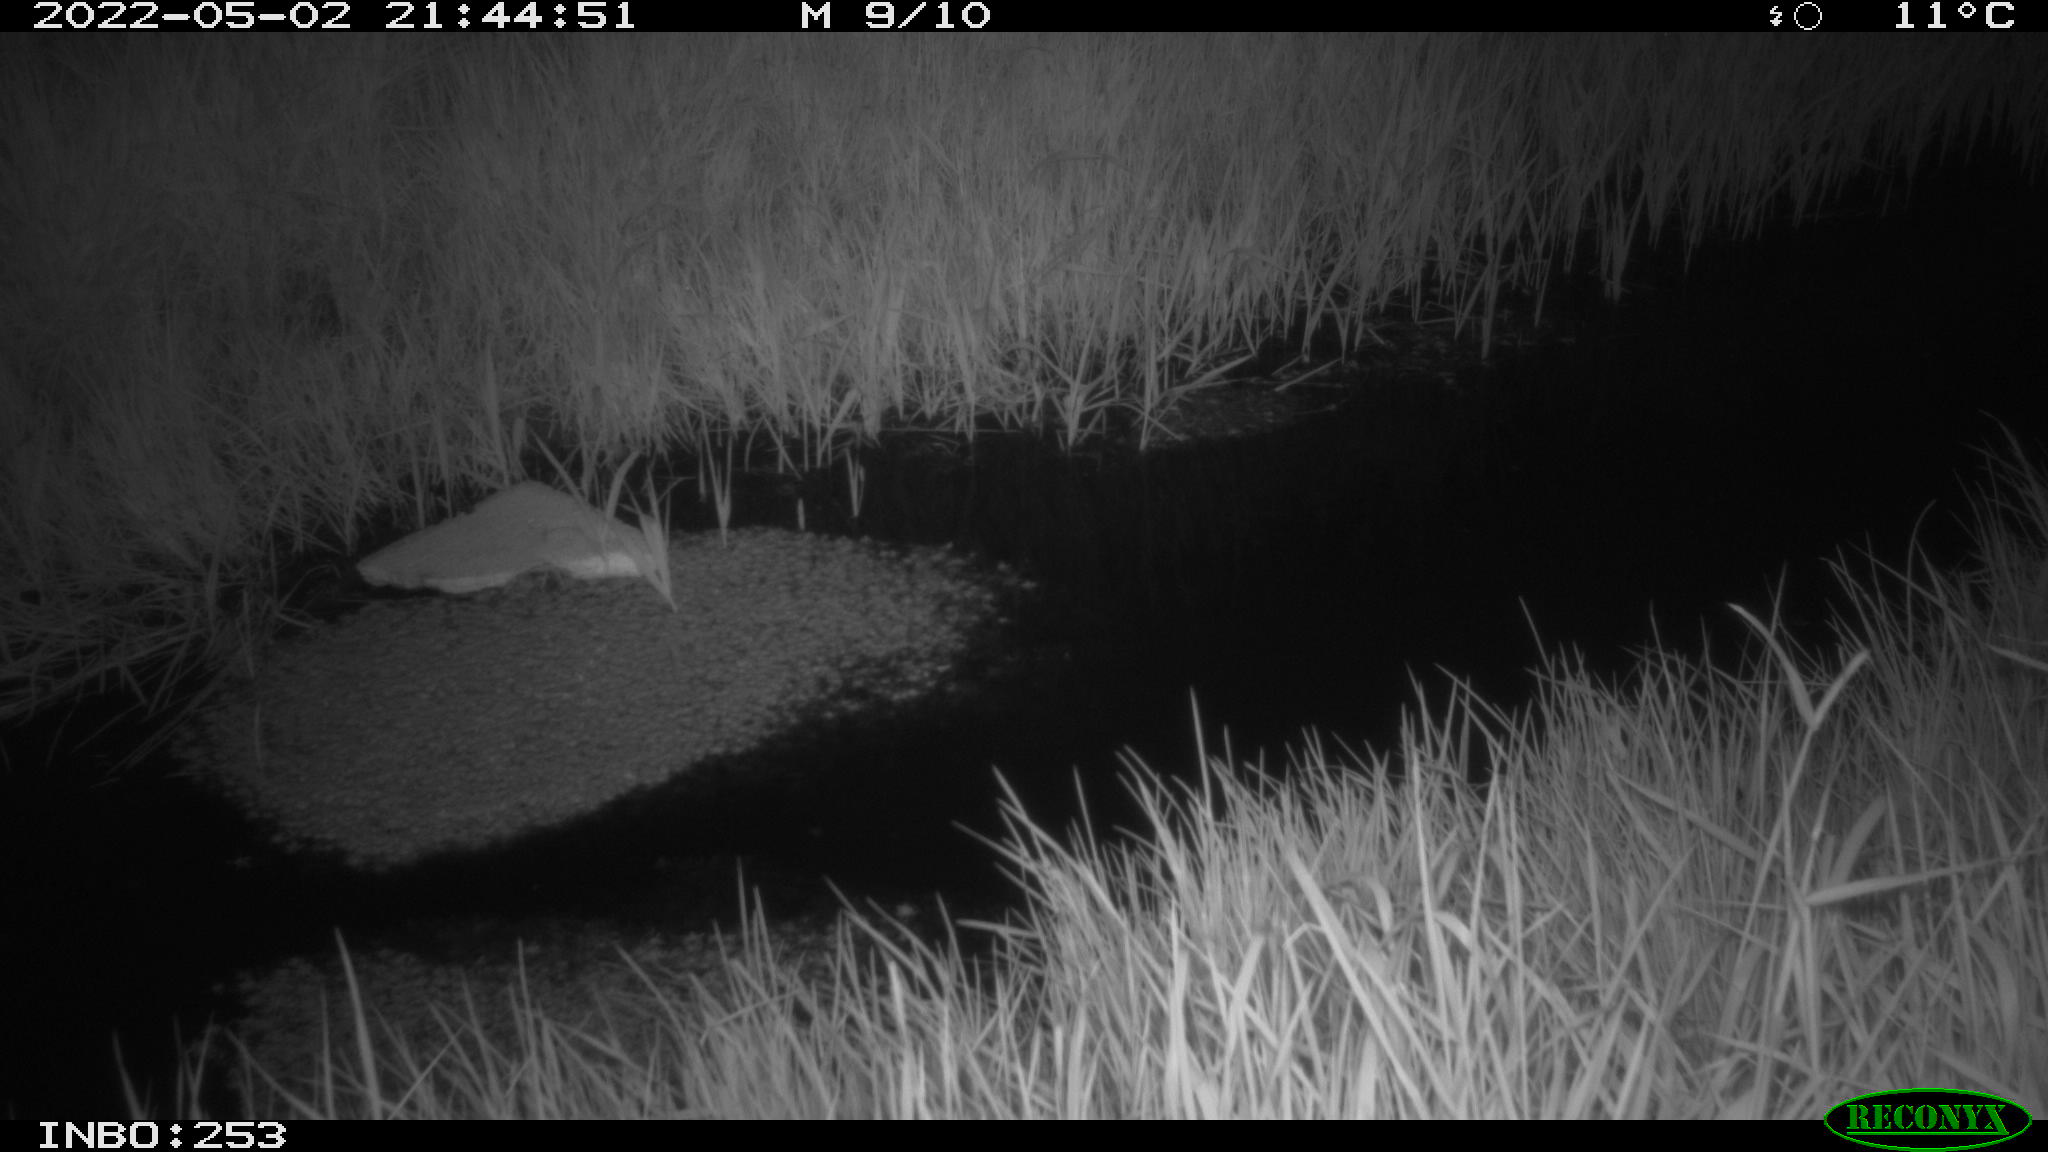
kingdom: Animalia
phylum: Chordata
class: Aves
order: Anseriformes
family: Anatidae
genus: Anas
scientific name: Anas platyrhynchos
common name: Mallard
